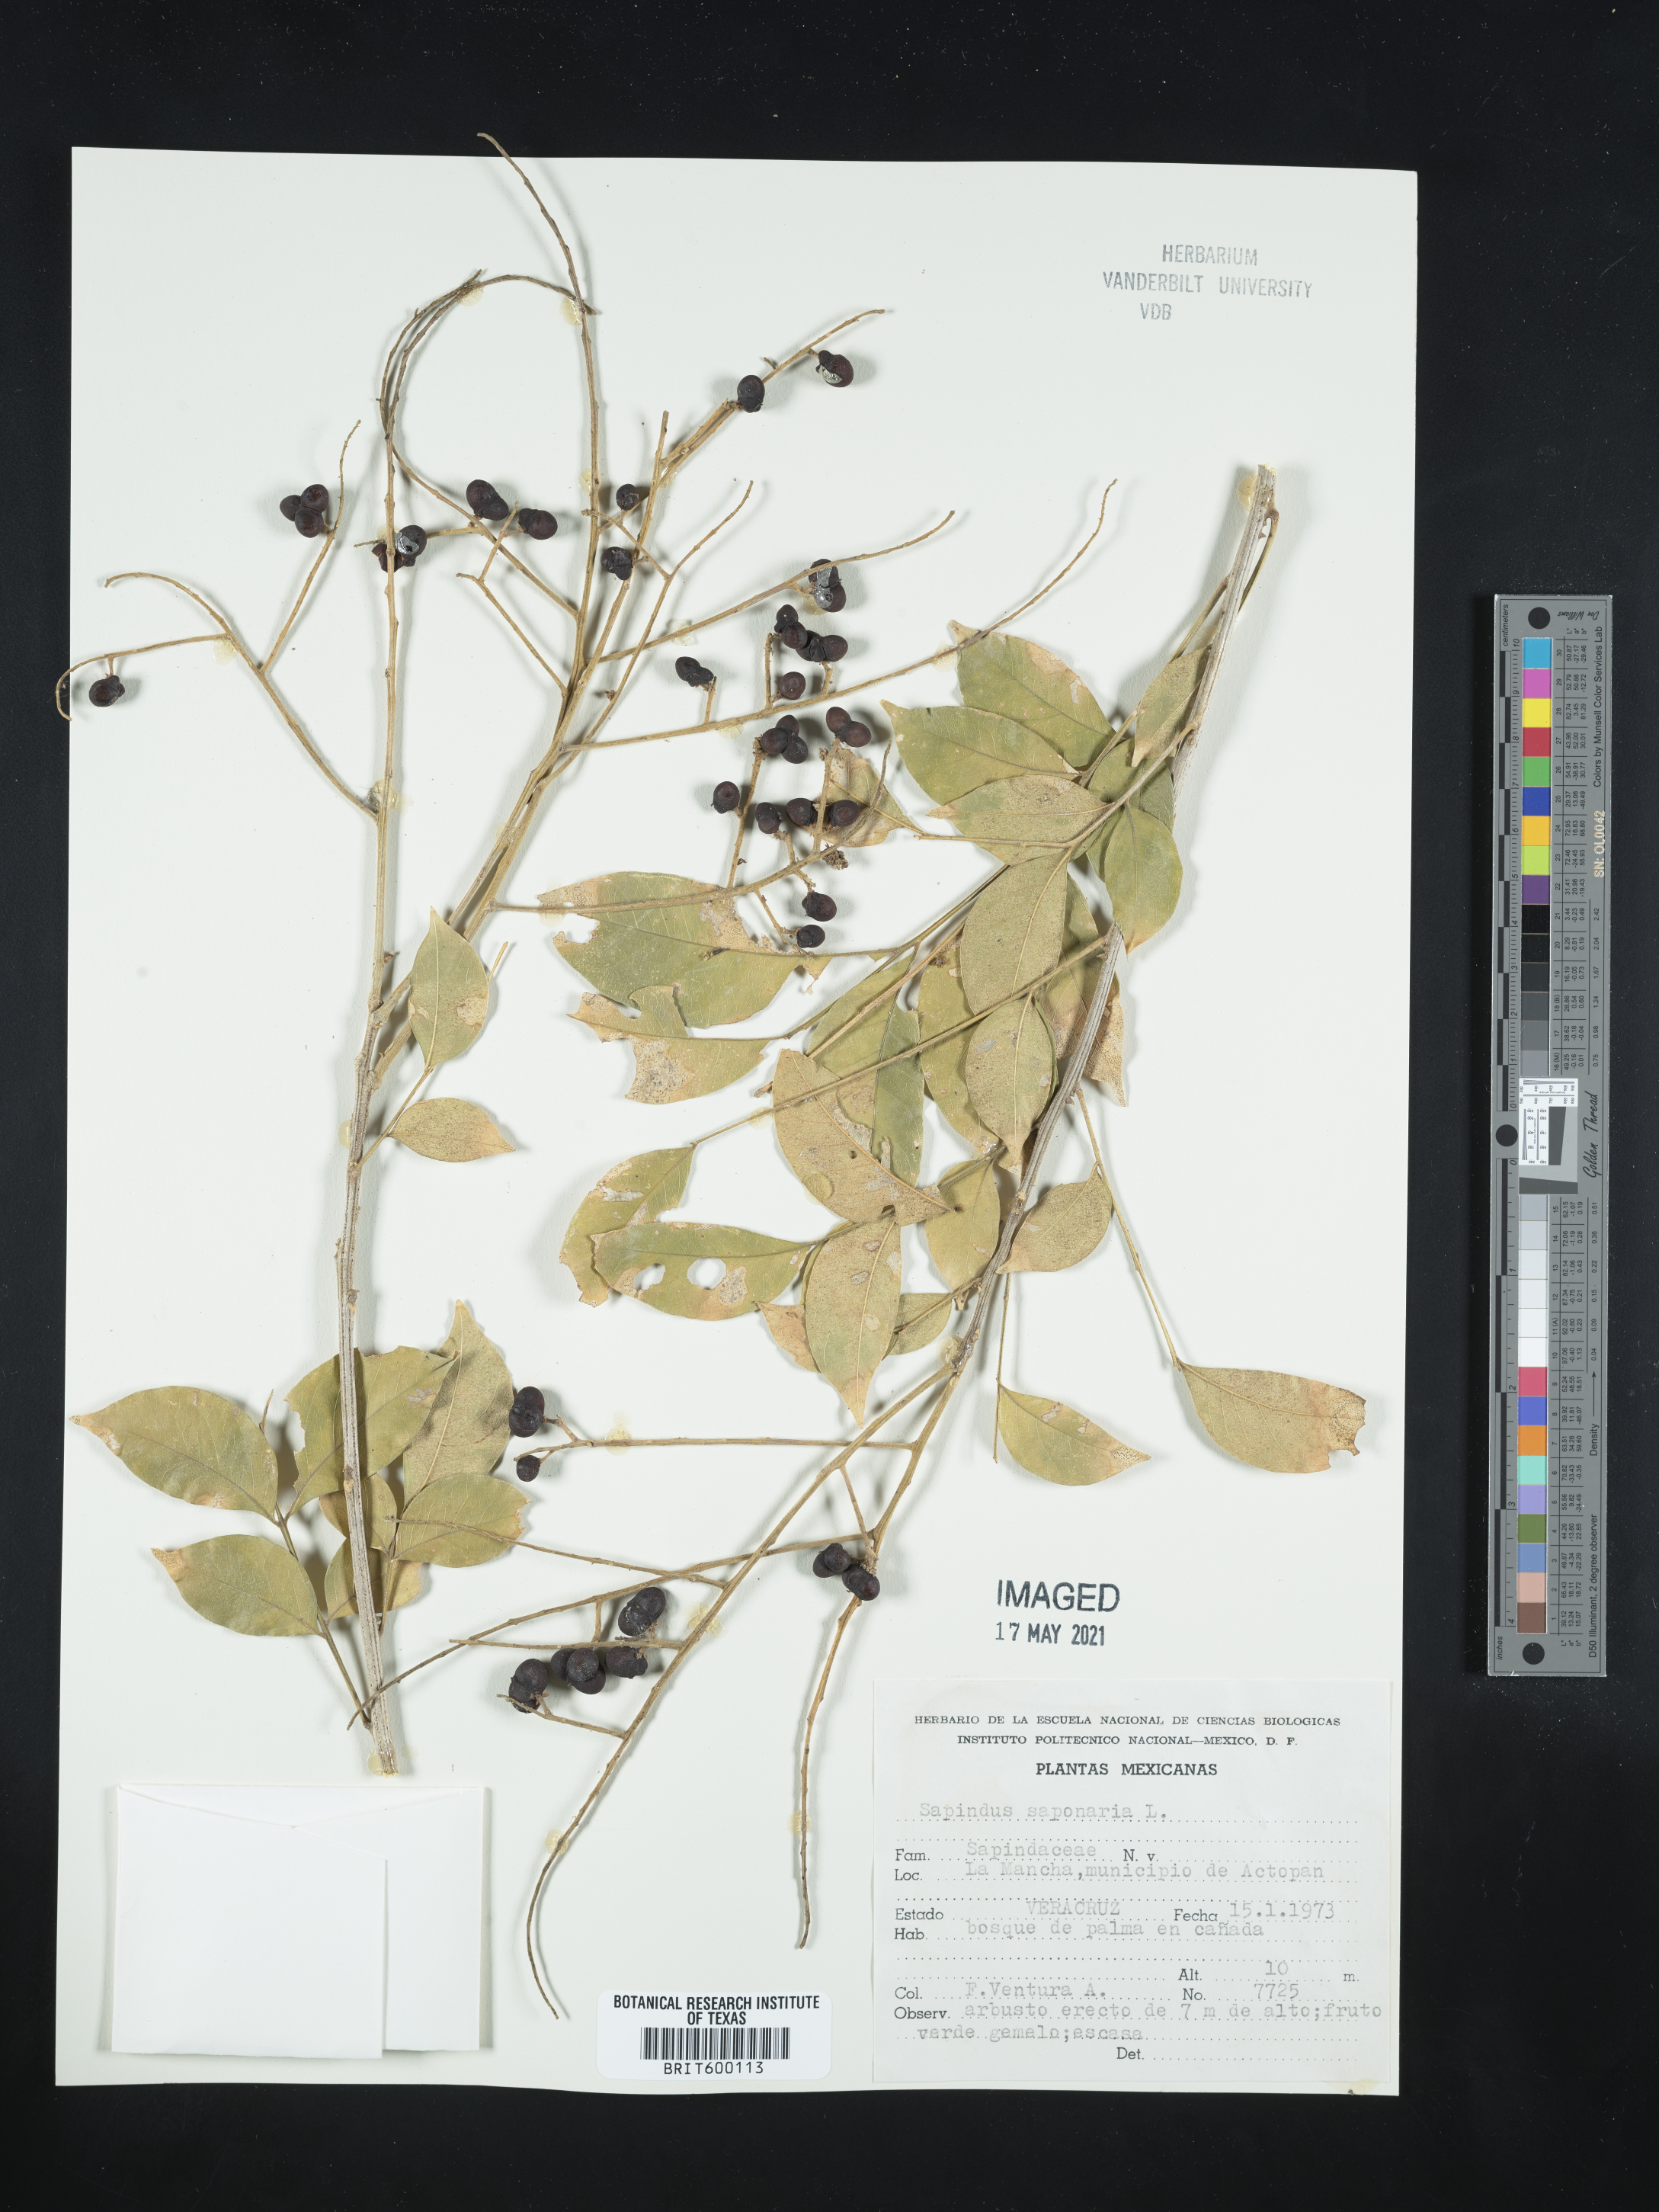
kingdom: Plantae
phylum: Tracheophyta
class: Magnoliopsida
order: Sapindales
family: Sapindaceae
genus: Sapindus
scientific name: Sapindus saponaria
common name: Wingleaf soapberry
